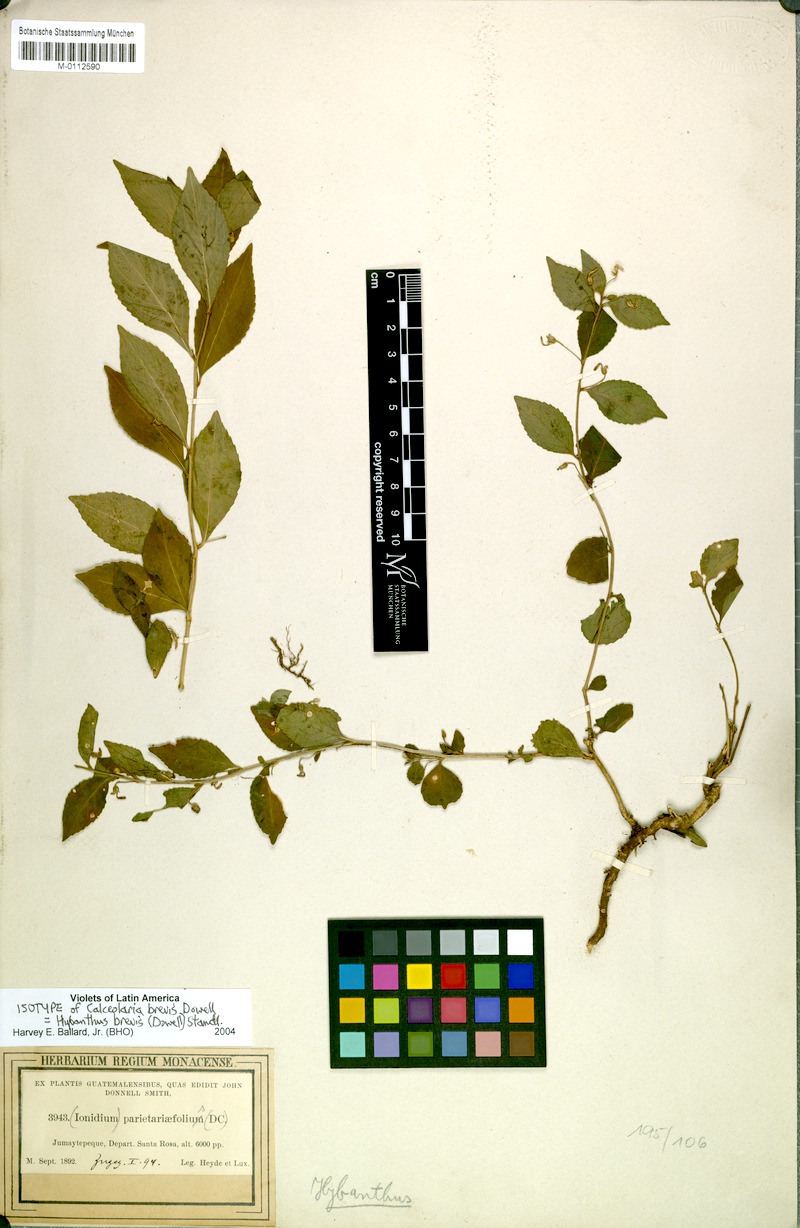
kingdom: Plantae
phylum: Tracheophyta
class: Magnoliopsida
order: Malpighiales
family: Violaceae
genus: Pombalia
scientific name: Pombalia brevis
